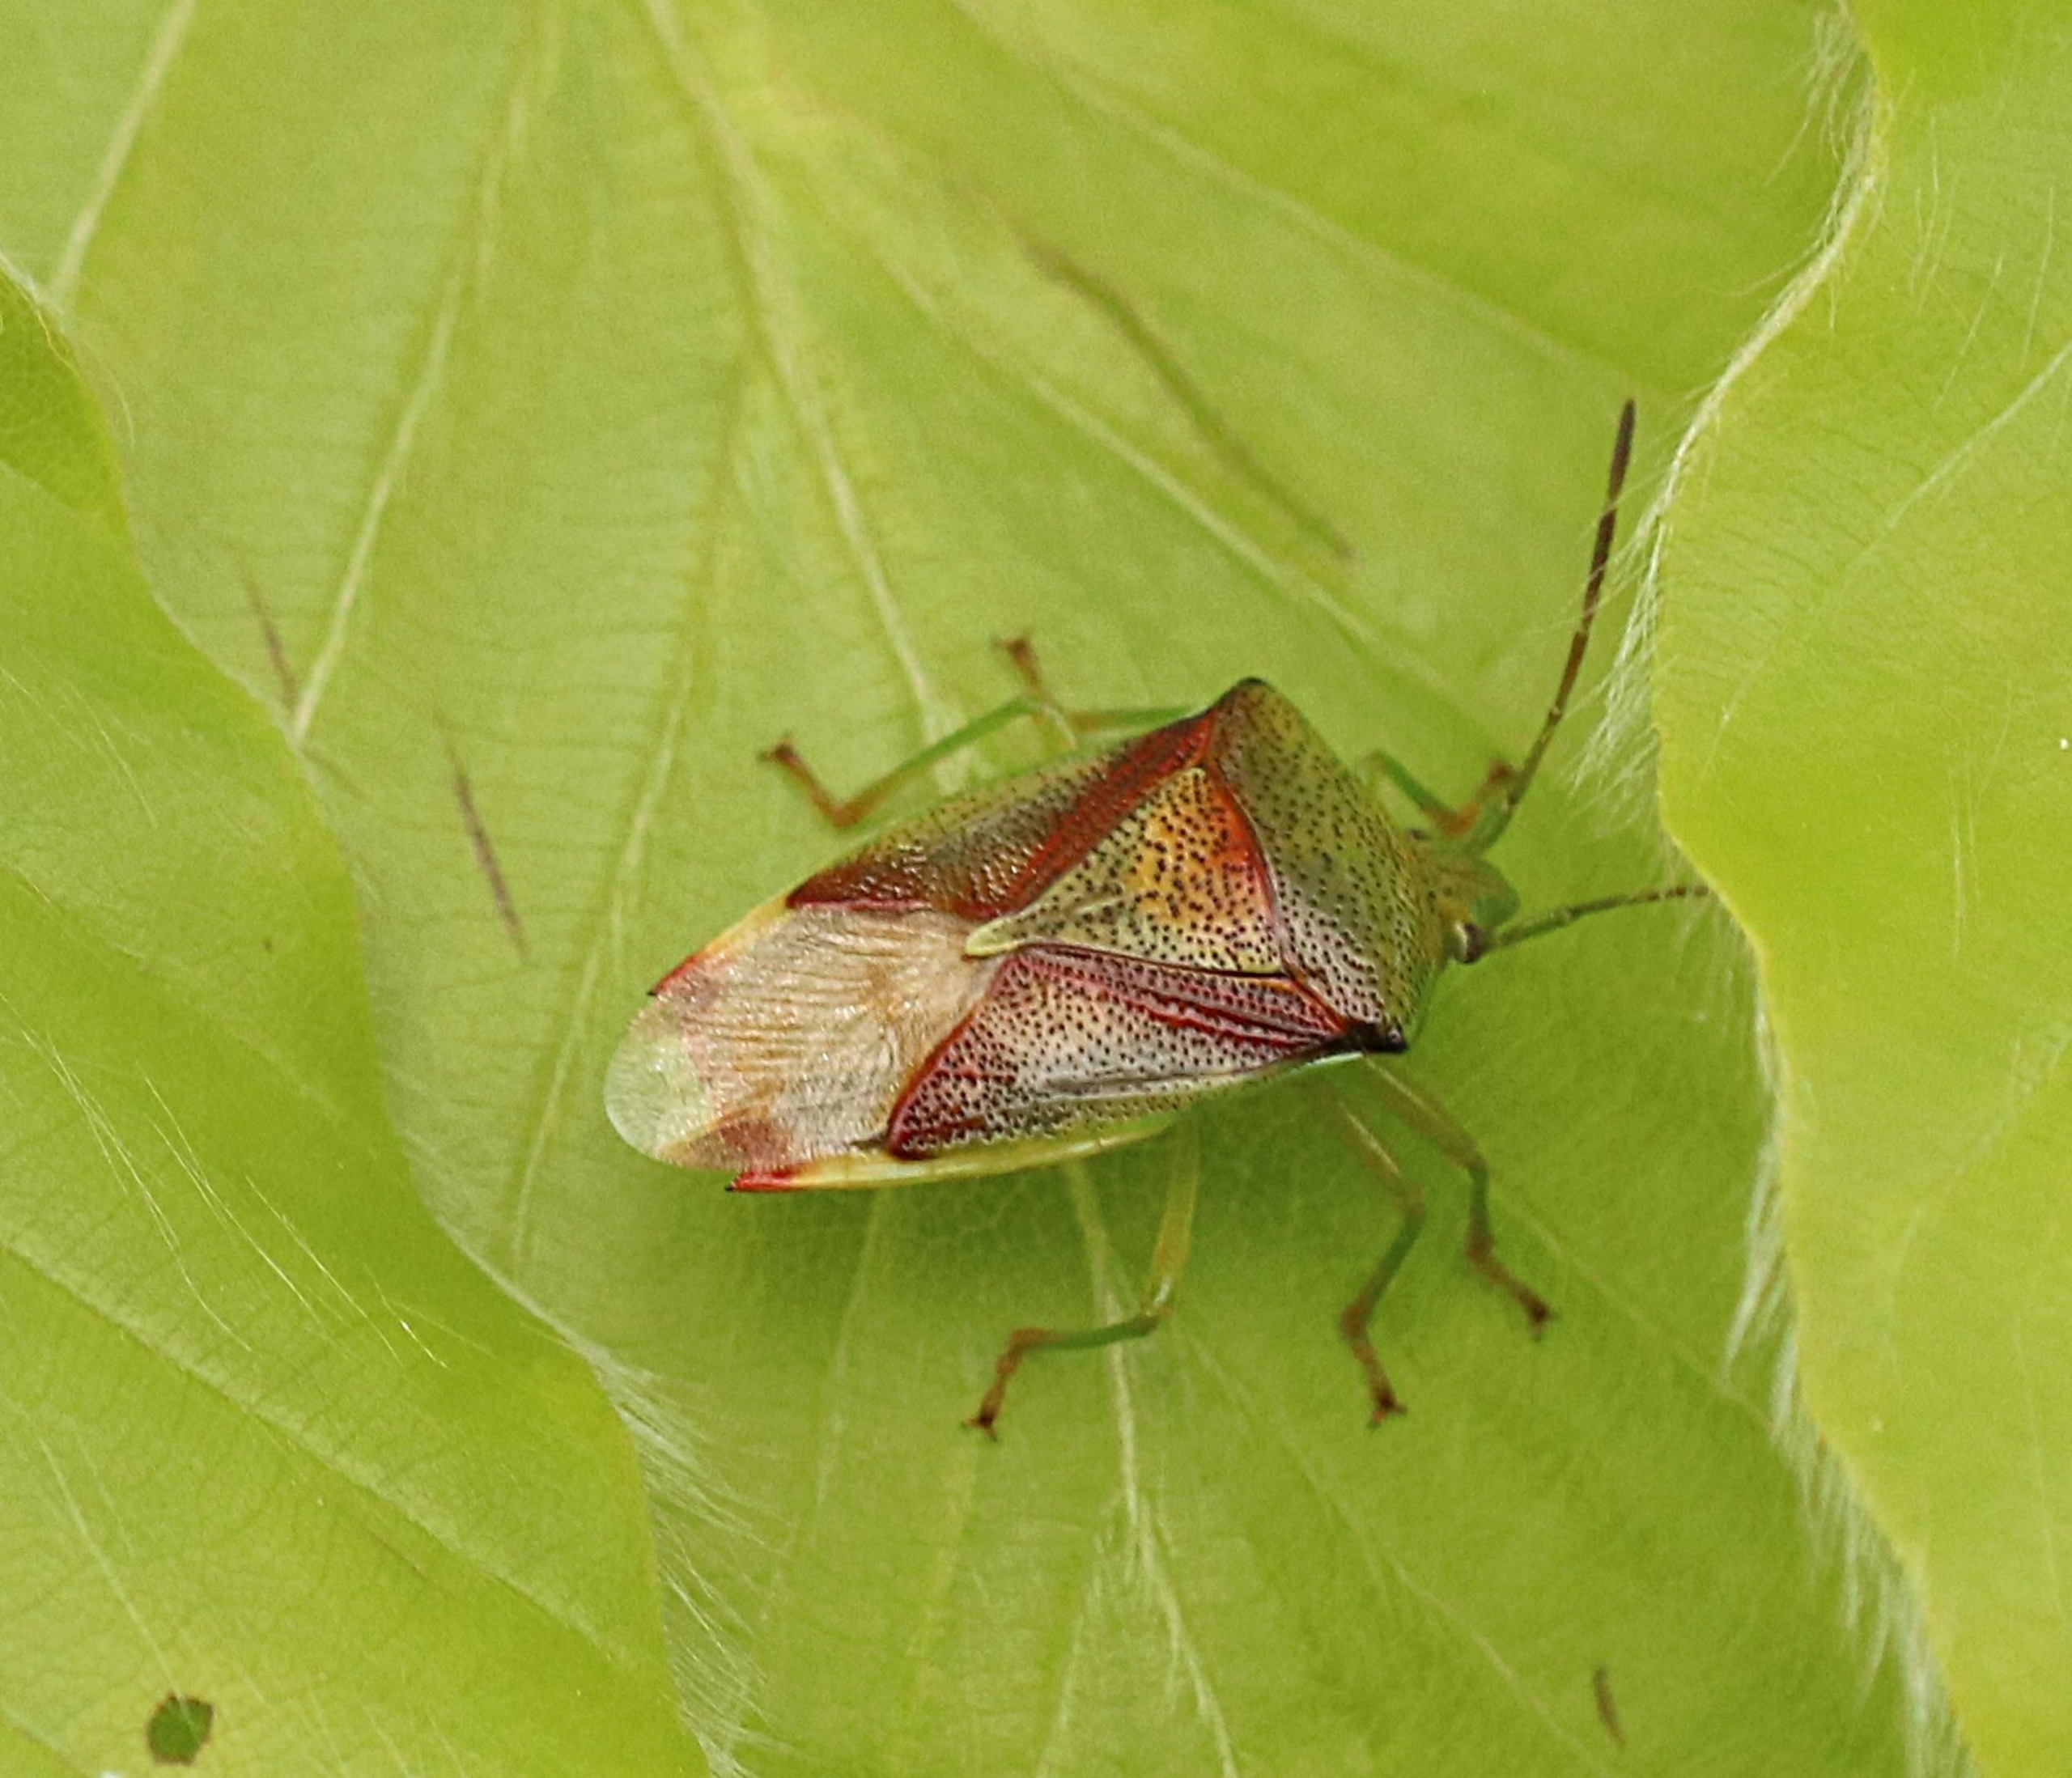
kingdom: Animalia
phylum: Arthropoda
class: Insecta
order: Hemiptera
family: Acanthosomatidae
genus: Elasmostethus
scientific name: Elasmostethus
